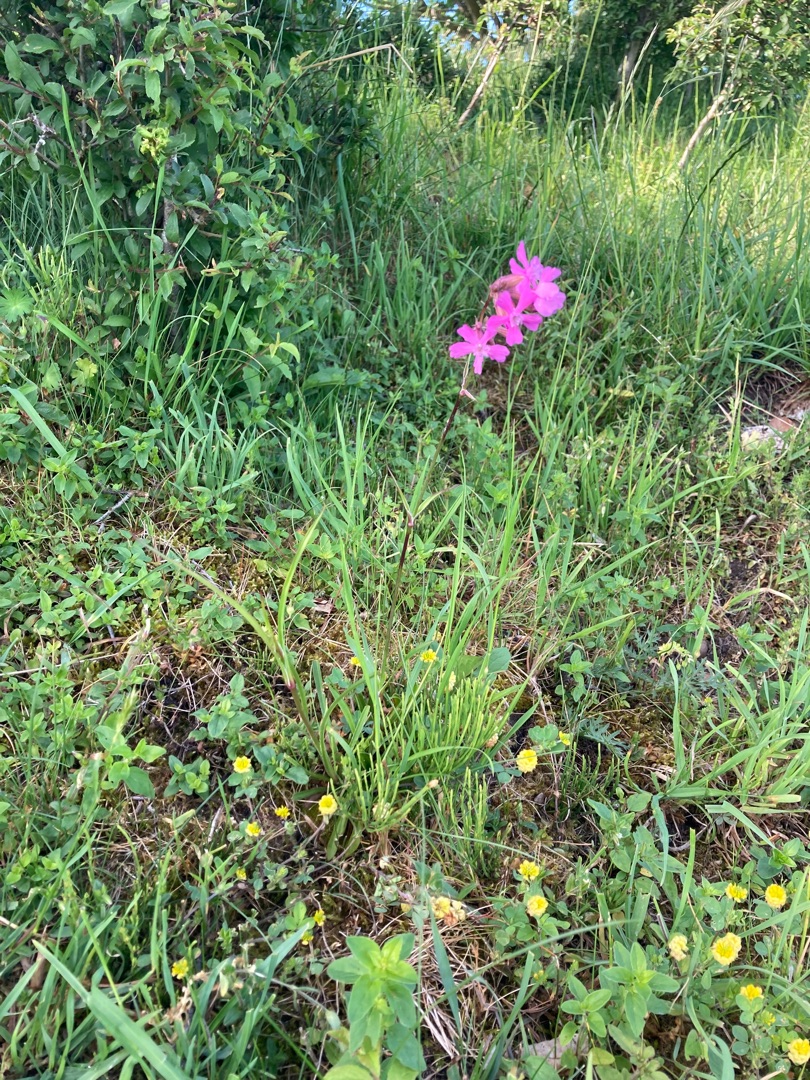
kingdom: Plantae
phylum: Tracheophyta
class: Magnoliopsida
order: Caryophyllales
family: Caryophyllaceae
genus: Viscaria
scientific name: Viscaria vulgaris
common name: Tjærenellike
